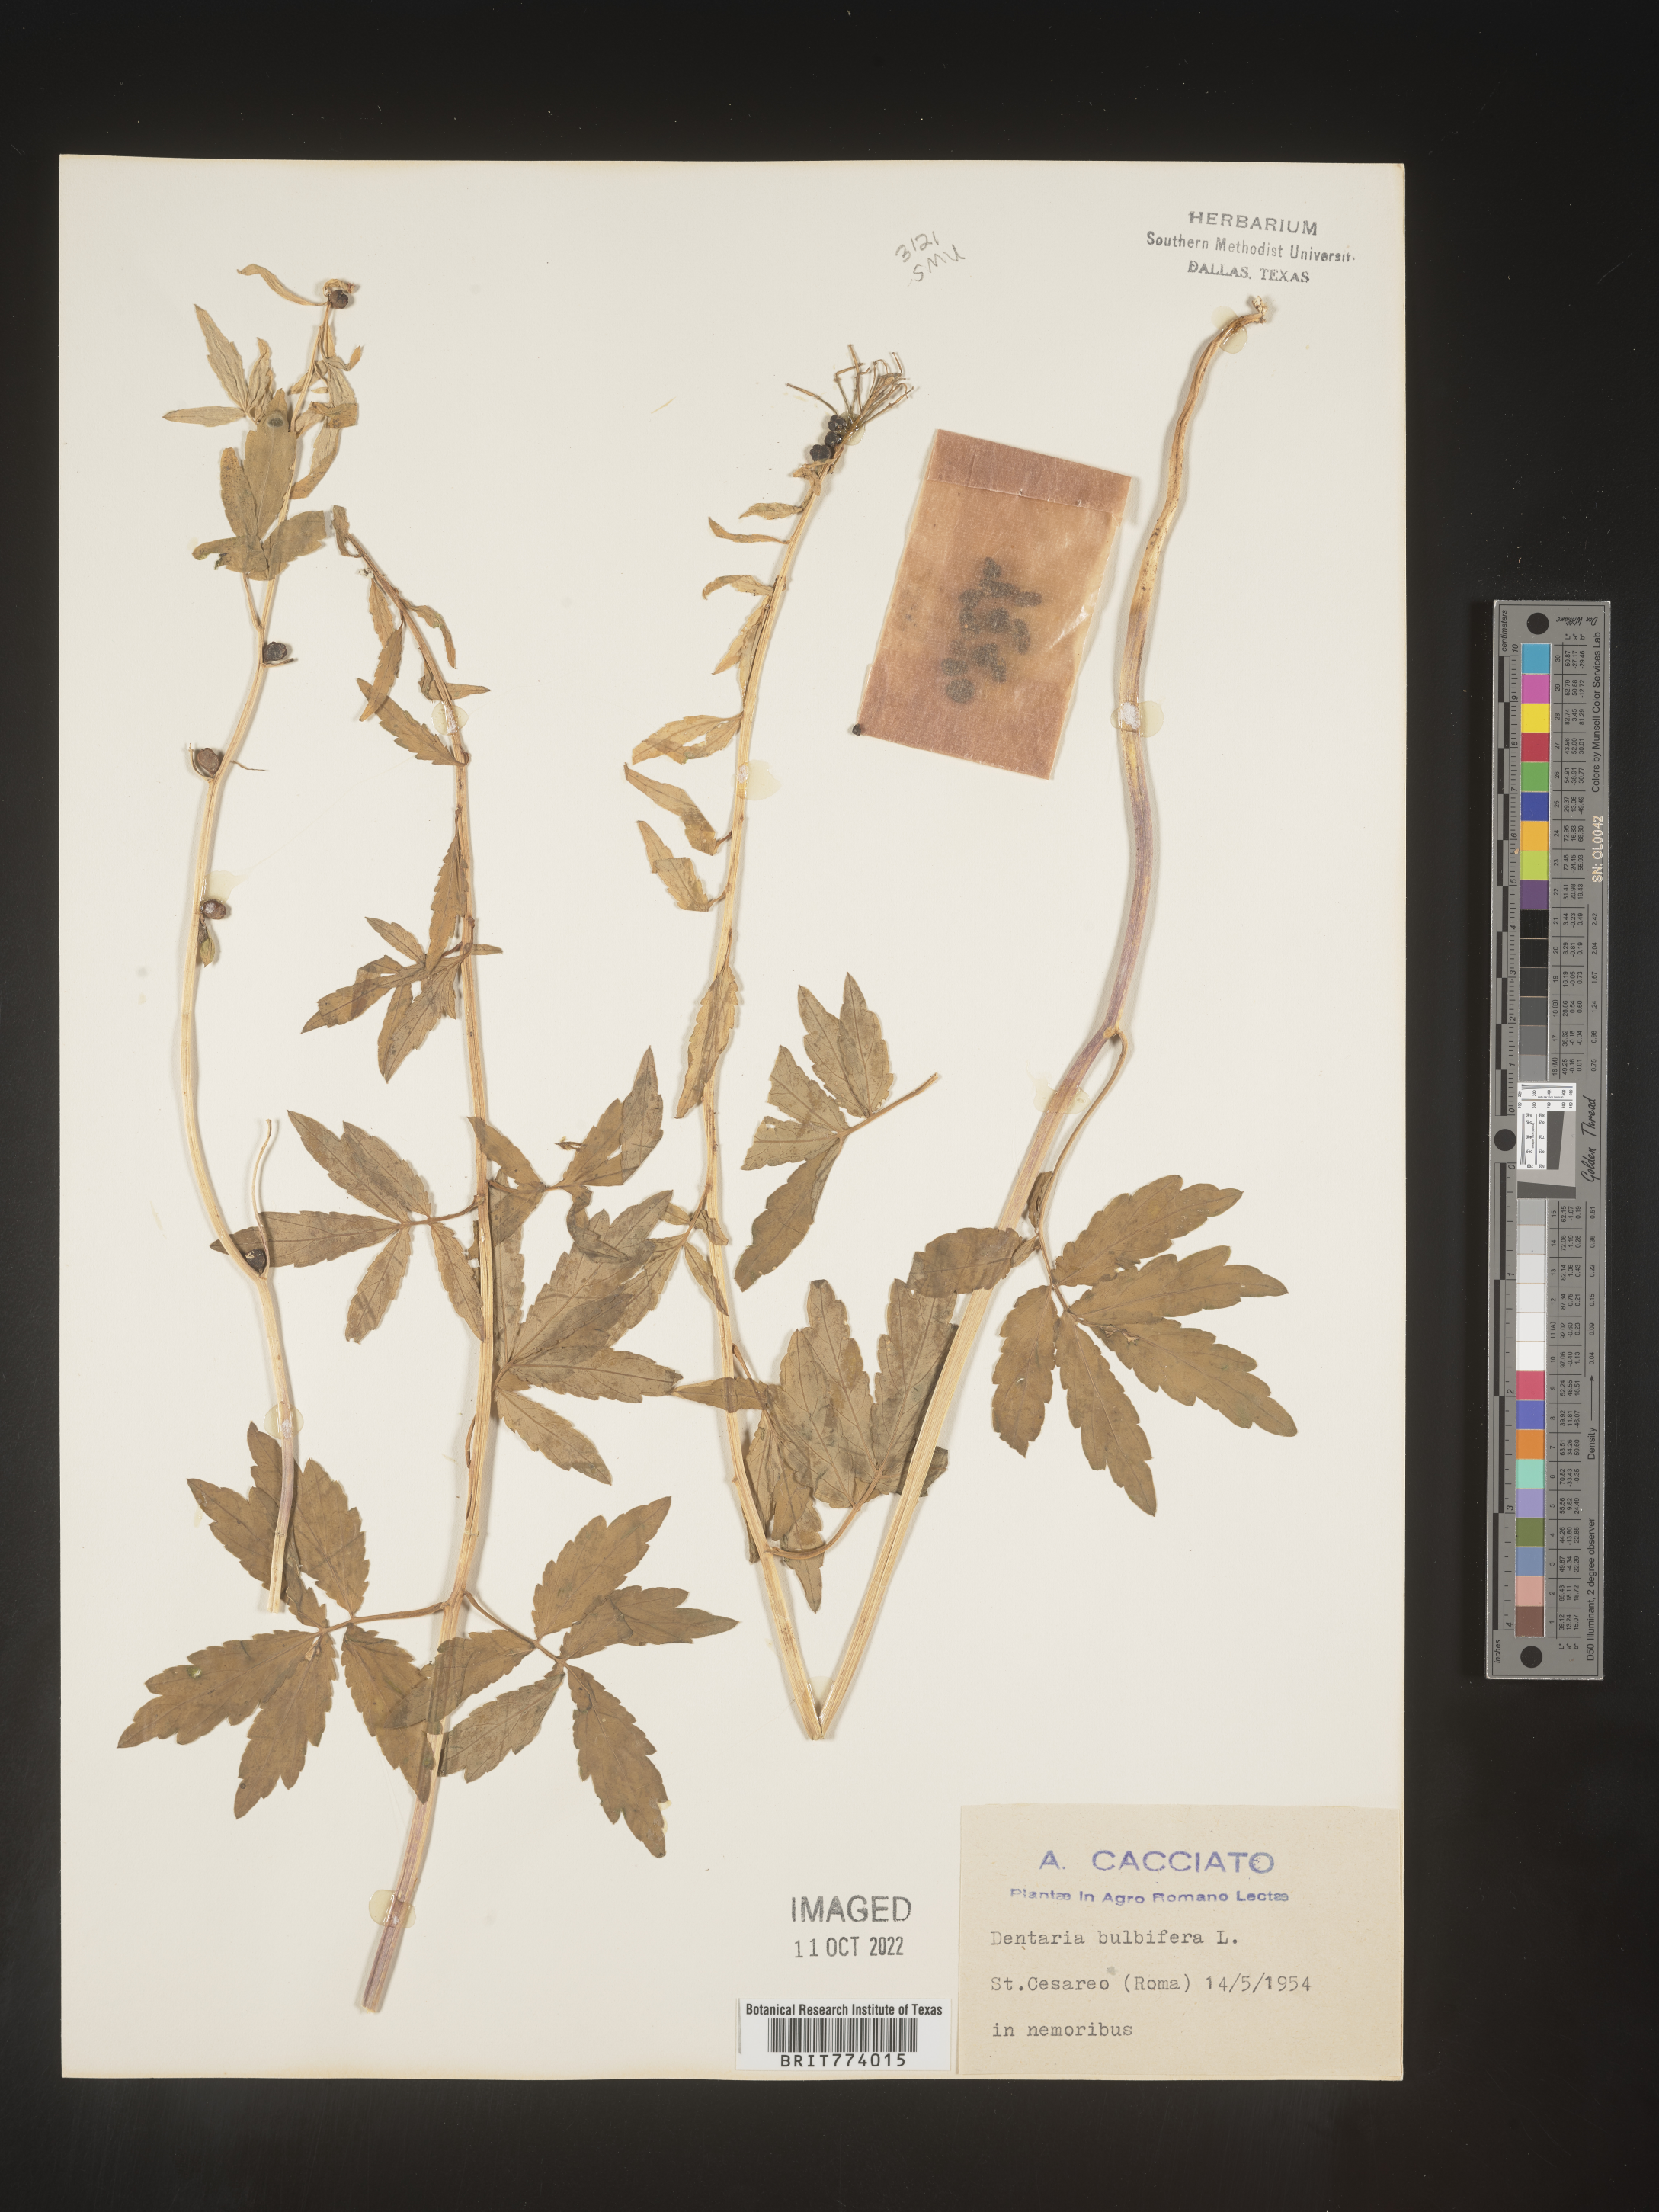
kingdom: Plantae
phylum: Tracheophyta
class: Magnoliopsida
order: Brassicales
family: Brassicaceae
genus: Cardamine
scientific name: Cardamine
